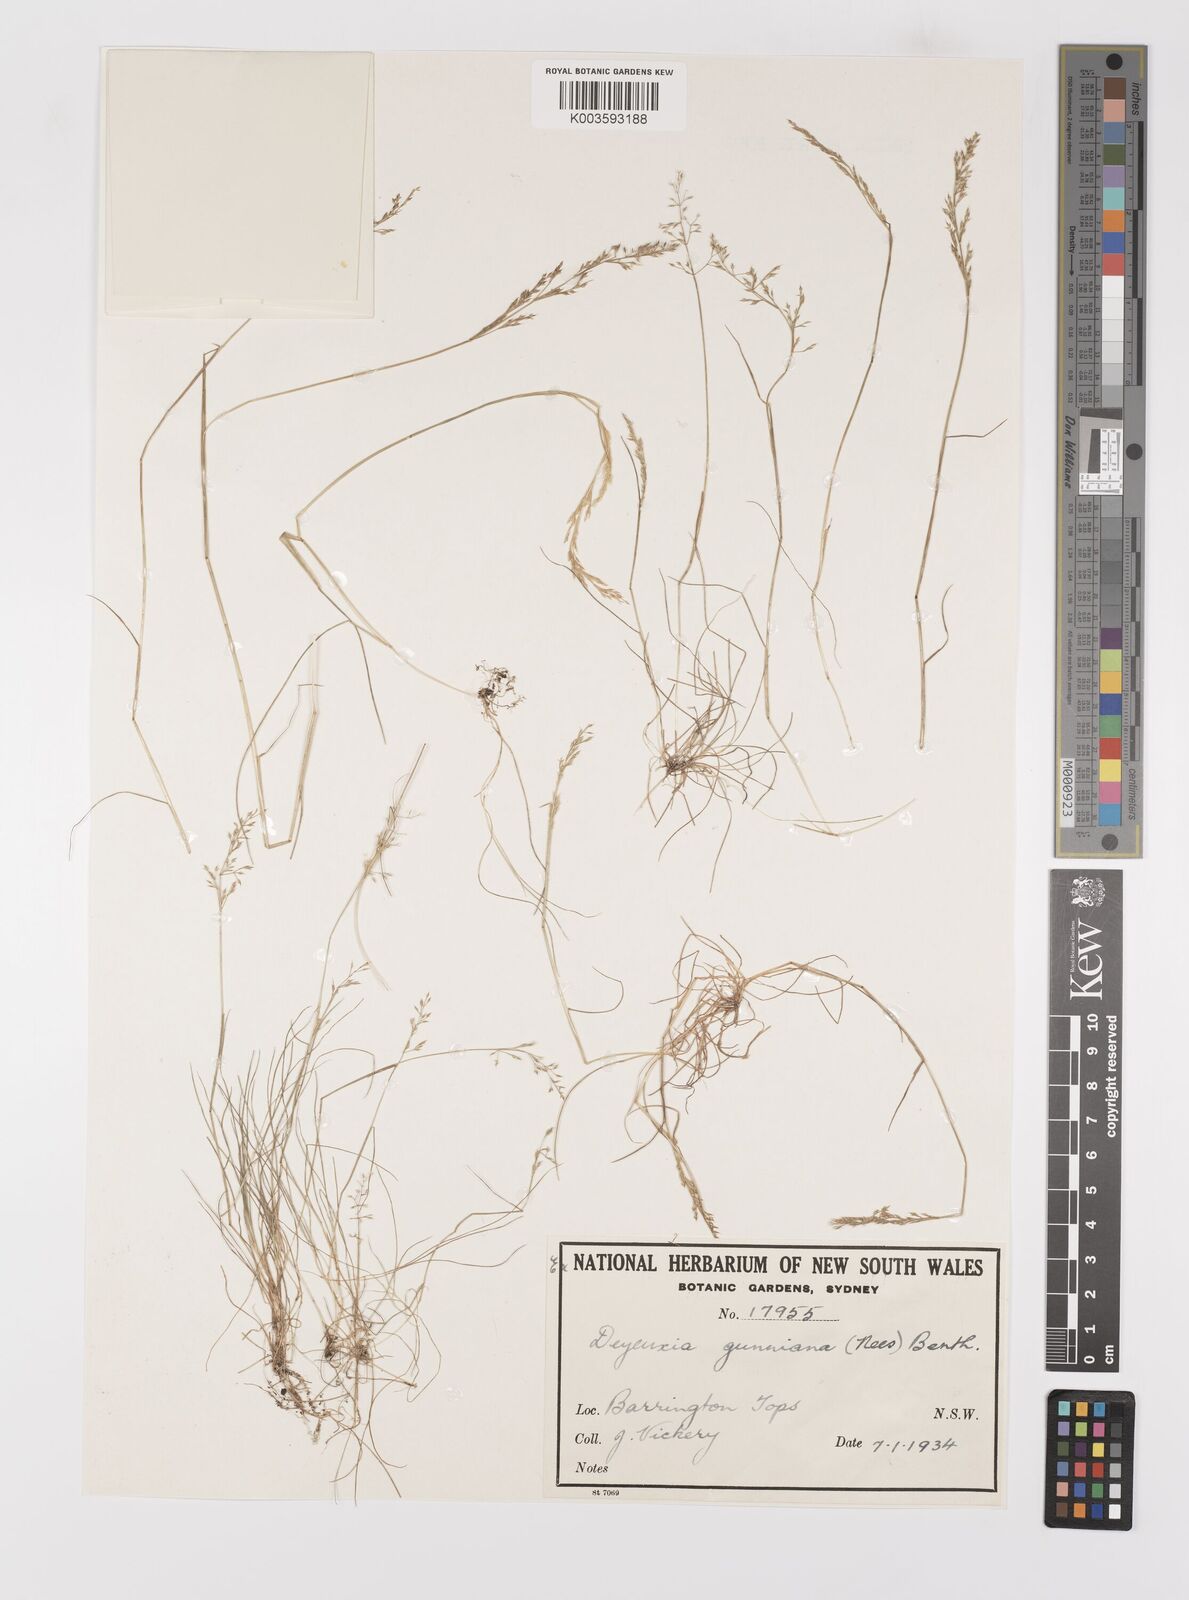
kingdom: Plantae
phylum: Tracheophyta
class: Liliopsida
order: Poales
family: Poaceae
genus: Ancistragrostis
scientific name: Ancistragrostis
